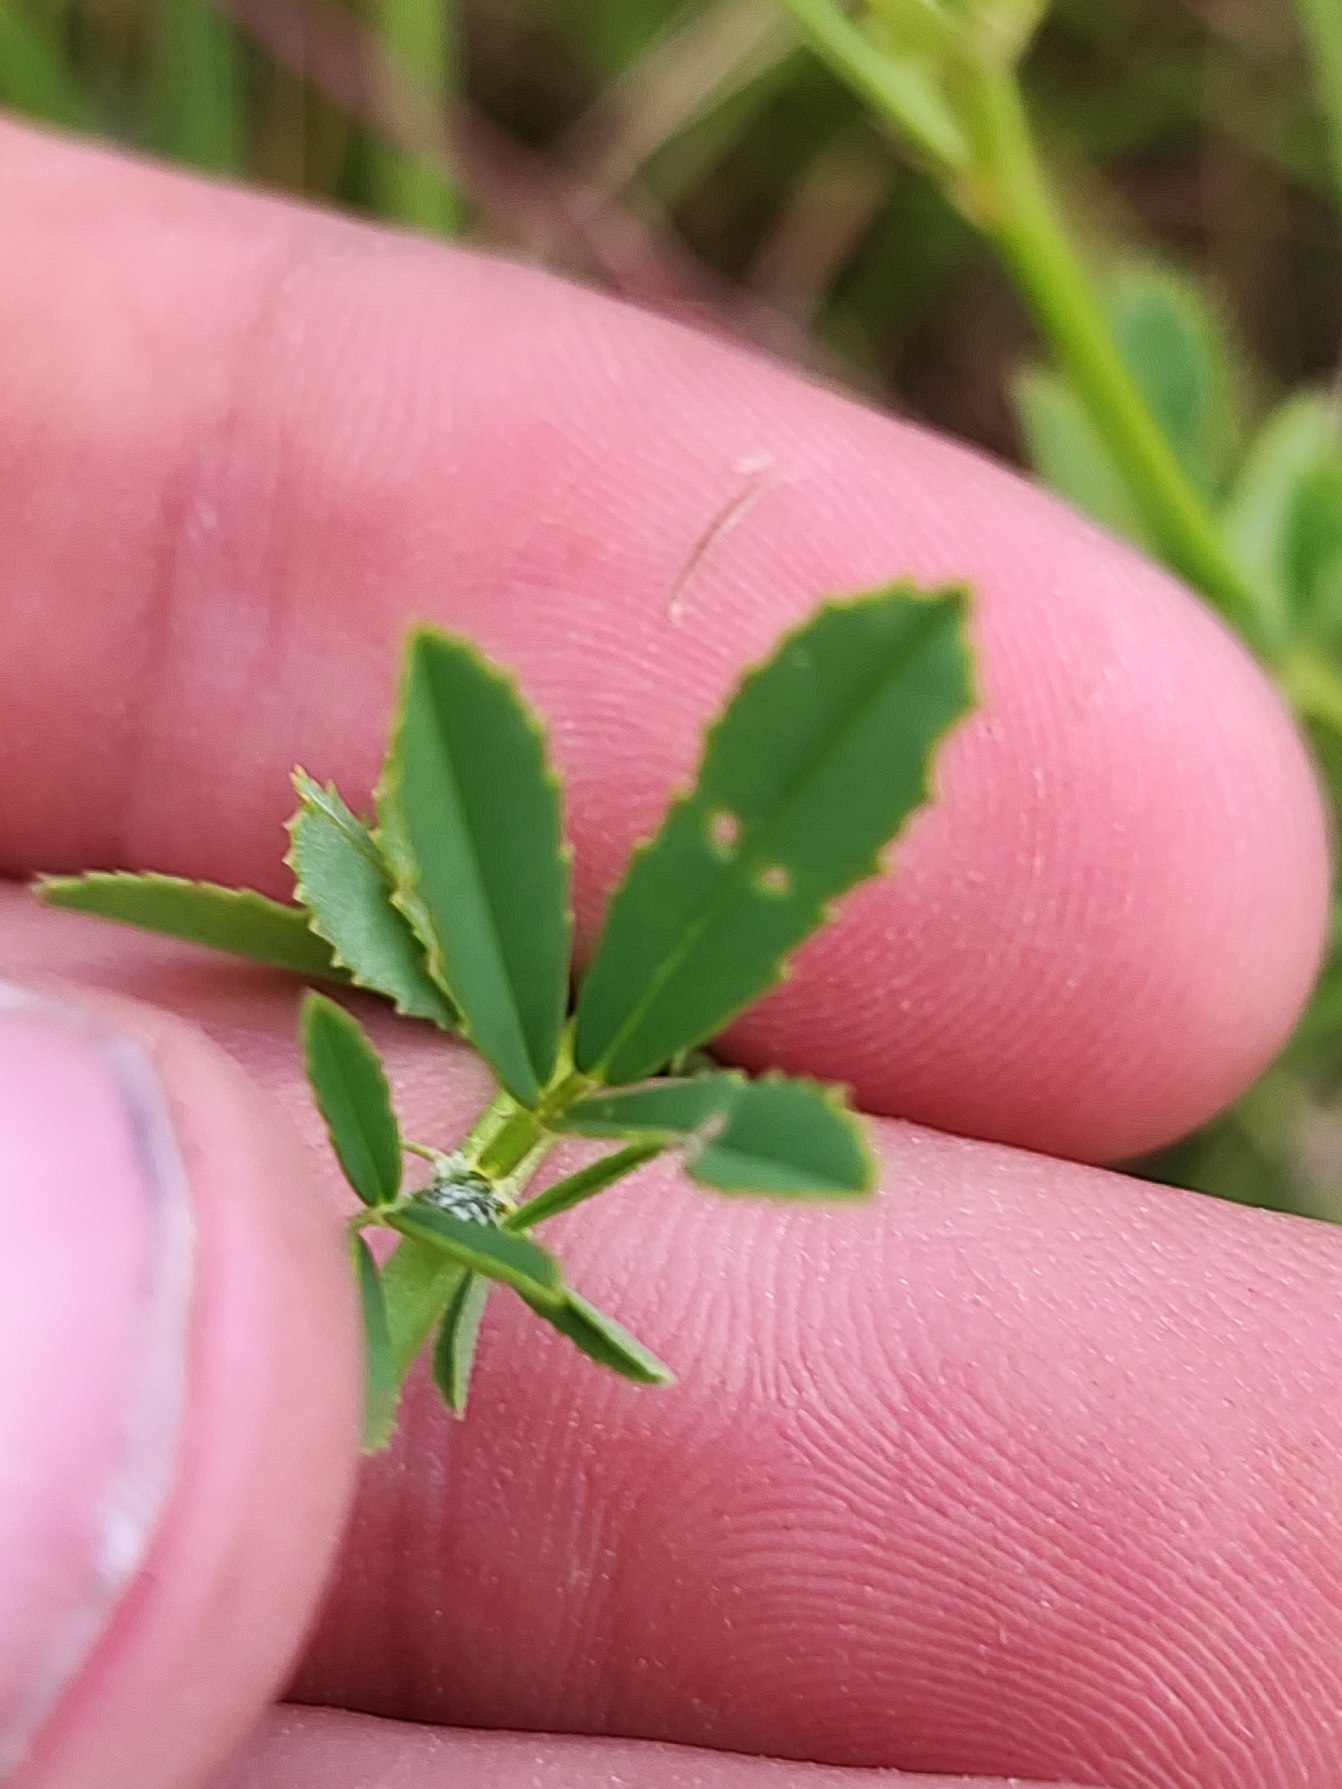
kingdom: Plantae
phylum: Tracheophyta
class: Magnoliopsida
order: Fabales
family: Fabaceae
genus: Melilotus
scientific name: Melilotus altissimus
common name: Høj stenkløver
